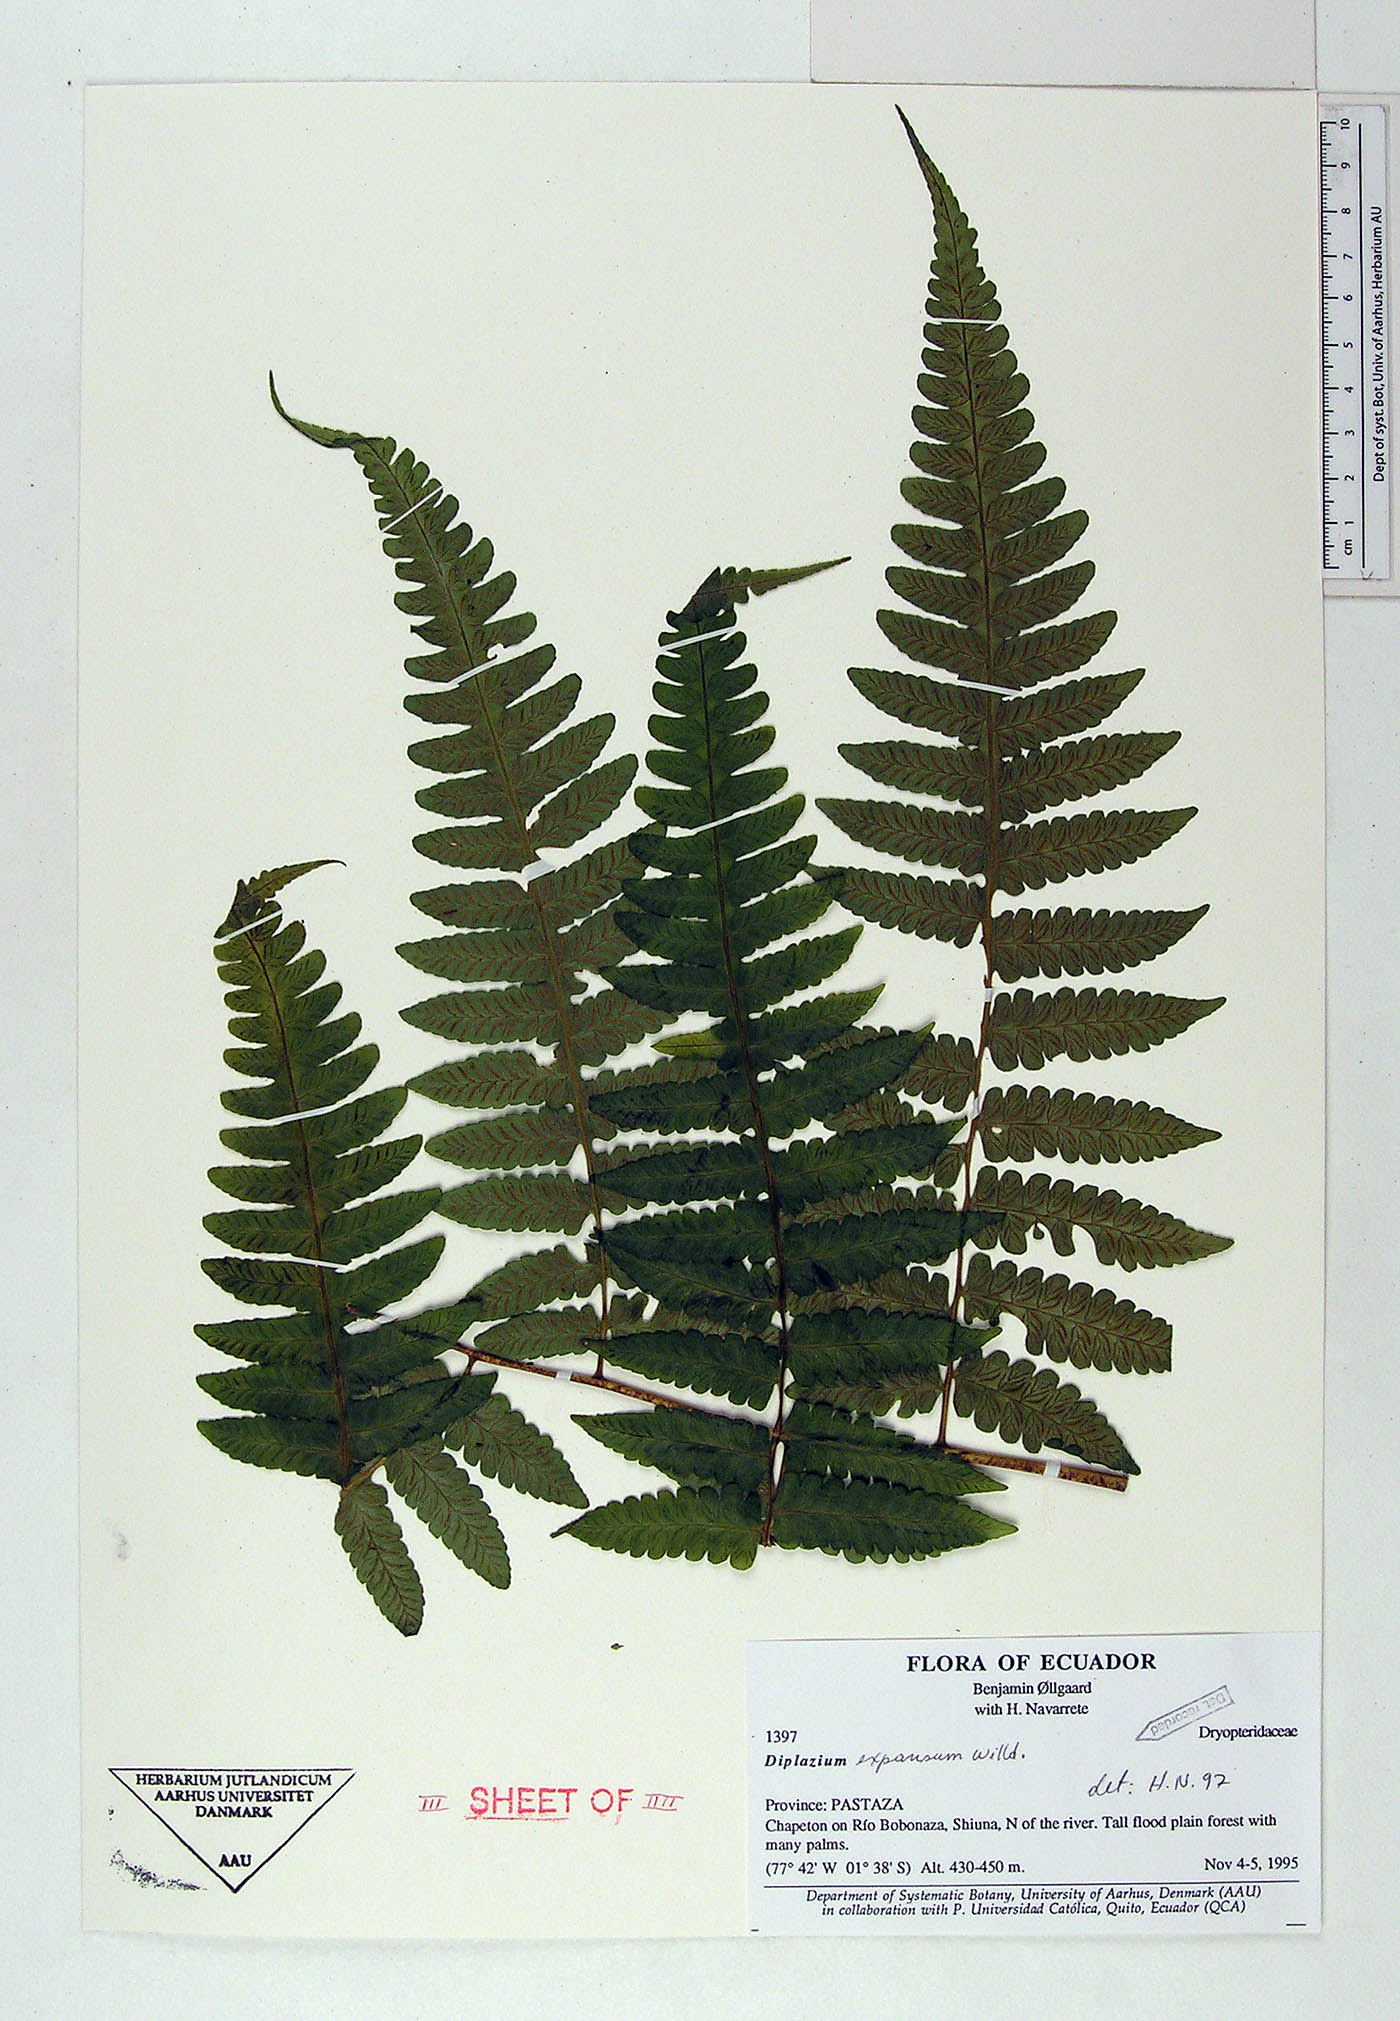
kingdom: Plantae
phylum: Tracheophyta
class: Polypodiopsida
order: Polypodiales
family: Athyriaceae
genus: Diplazium
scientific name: Diplazium expansum
